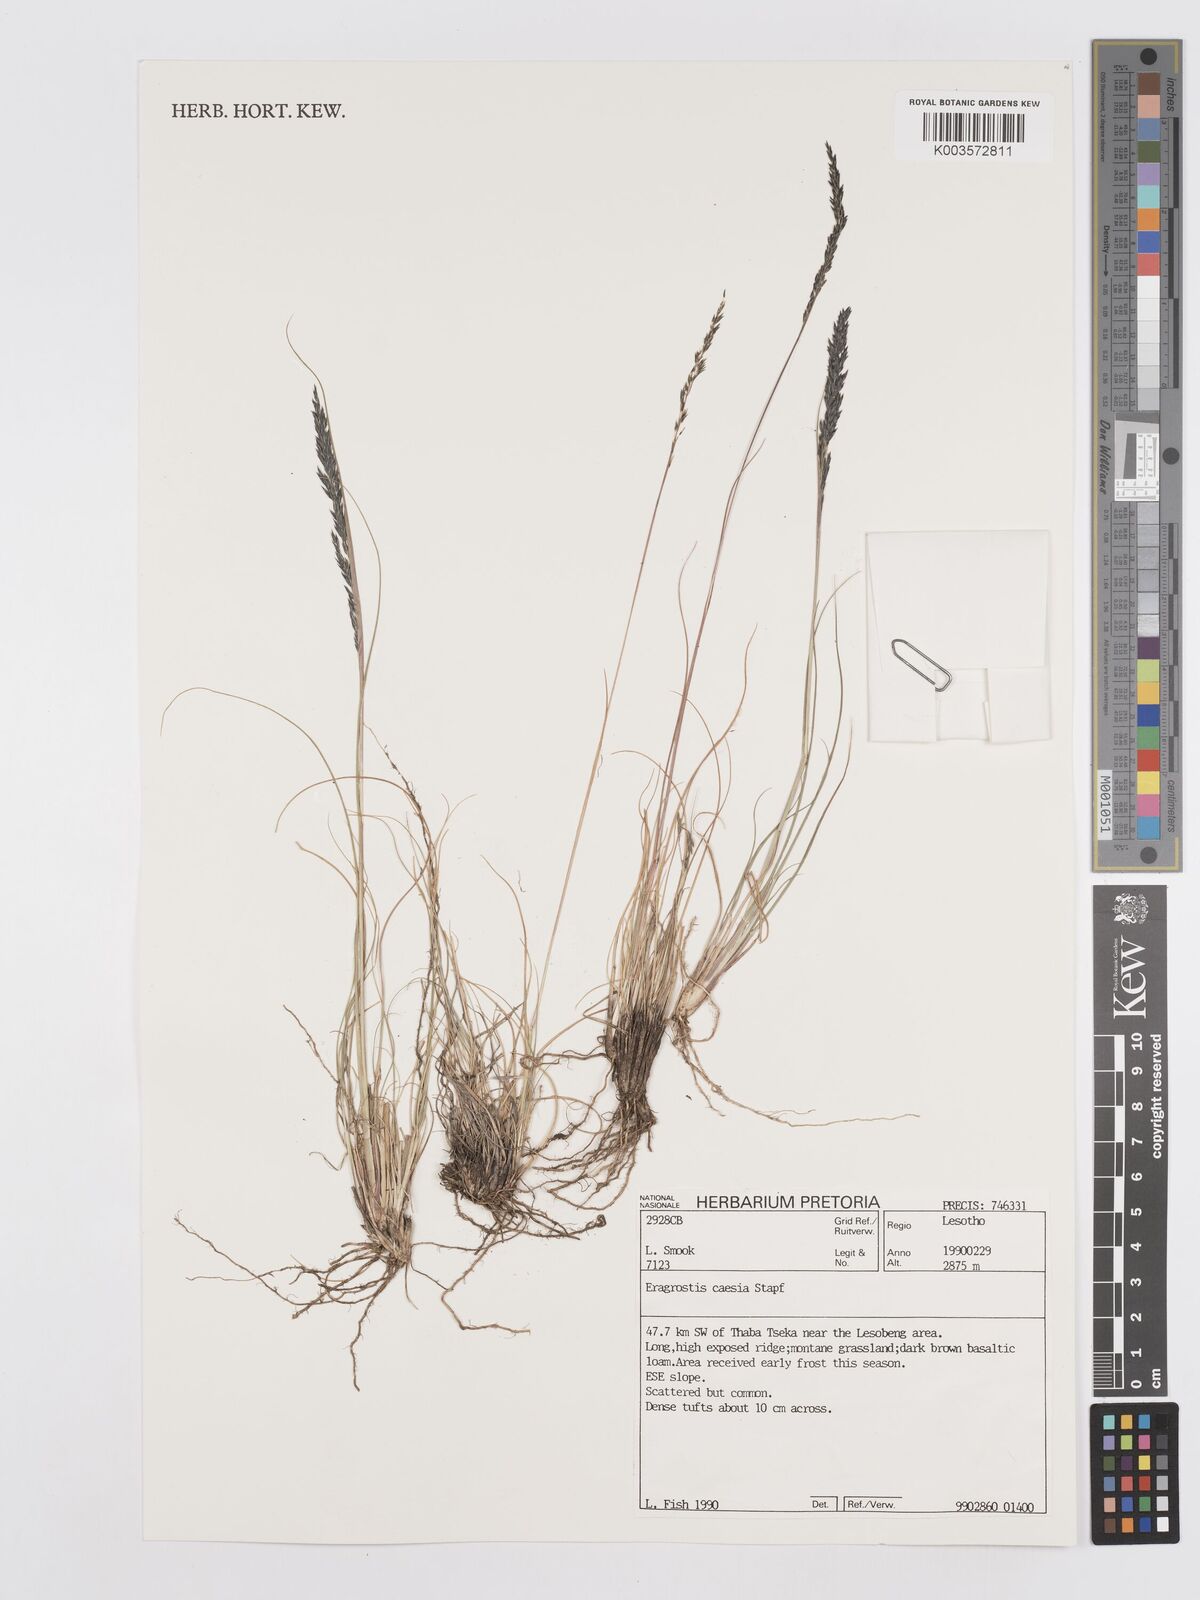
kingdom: Plantae
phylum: Tracheophyta
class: Liliopsida
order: Poales
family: Poaceae
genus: Eragrostis
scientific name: Eragrostis caesia
